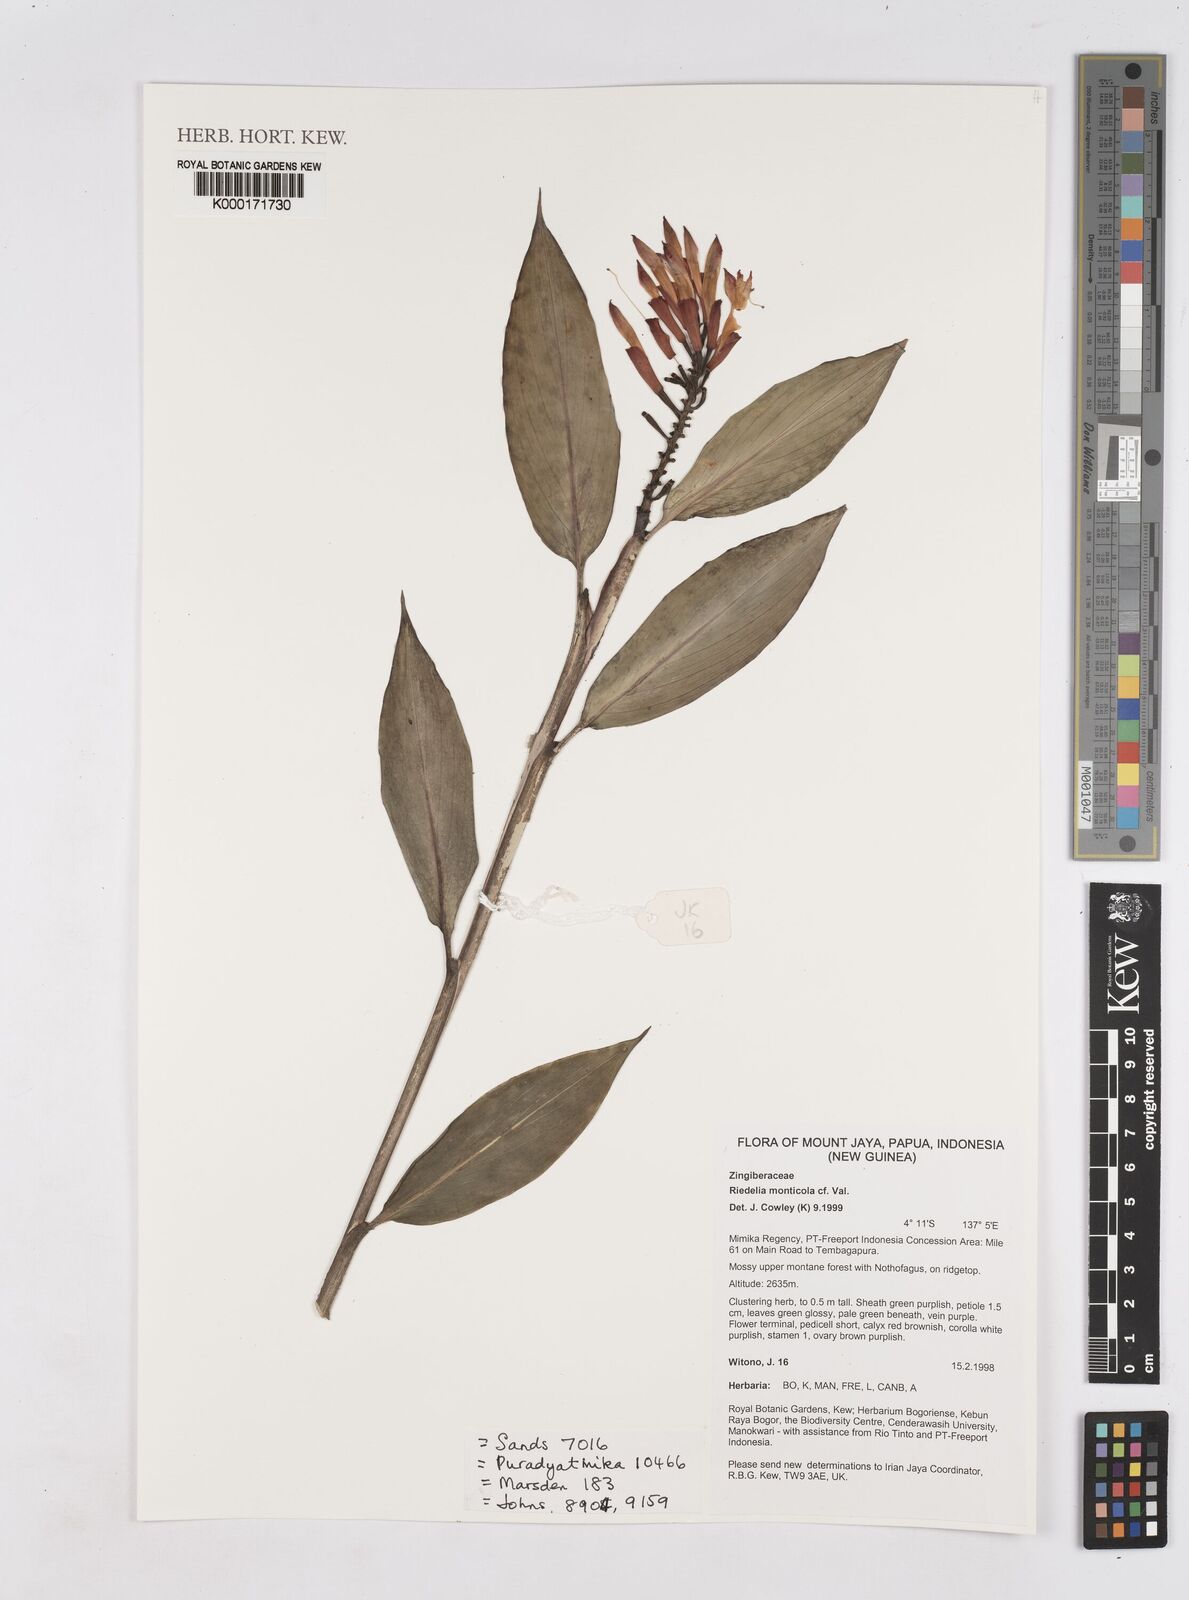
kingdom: Plantae
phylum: Tracheophyta
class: Liliopsida
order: Zingiberales
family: Zingiberaceae
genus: Riedelia
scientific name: Riedelia monticola
